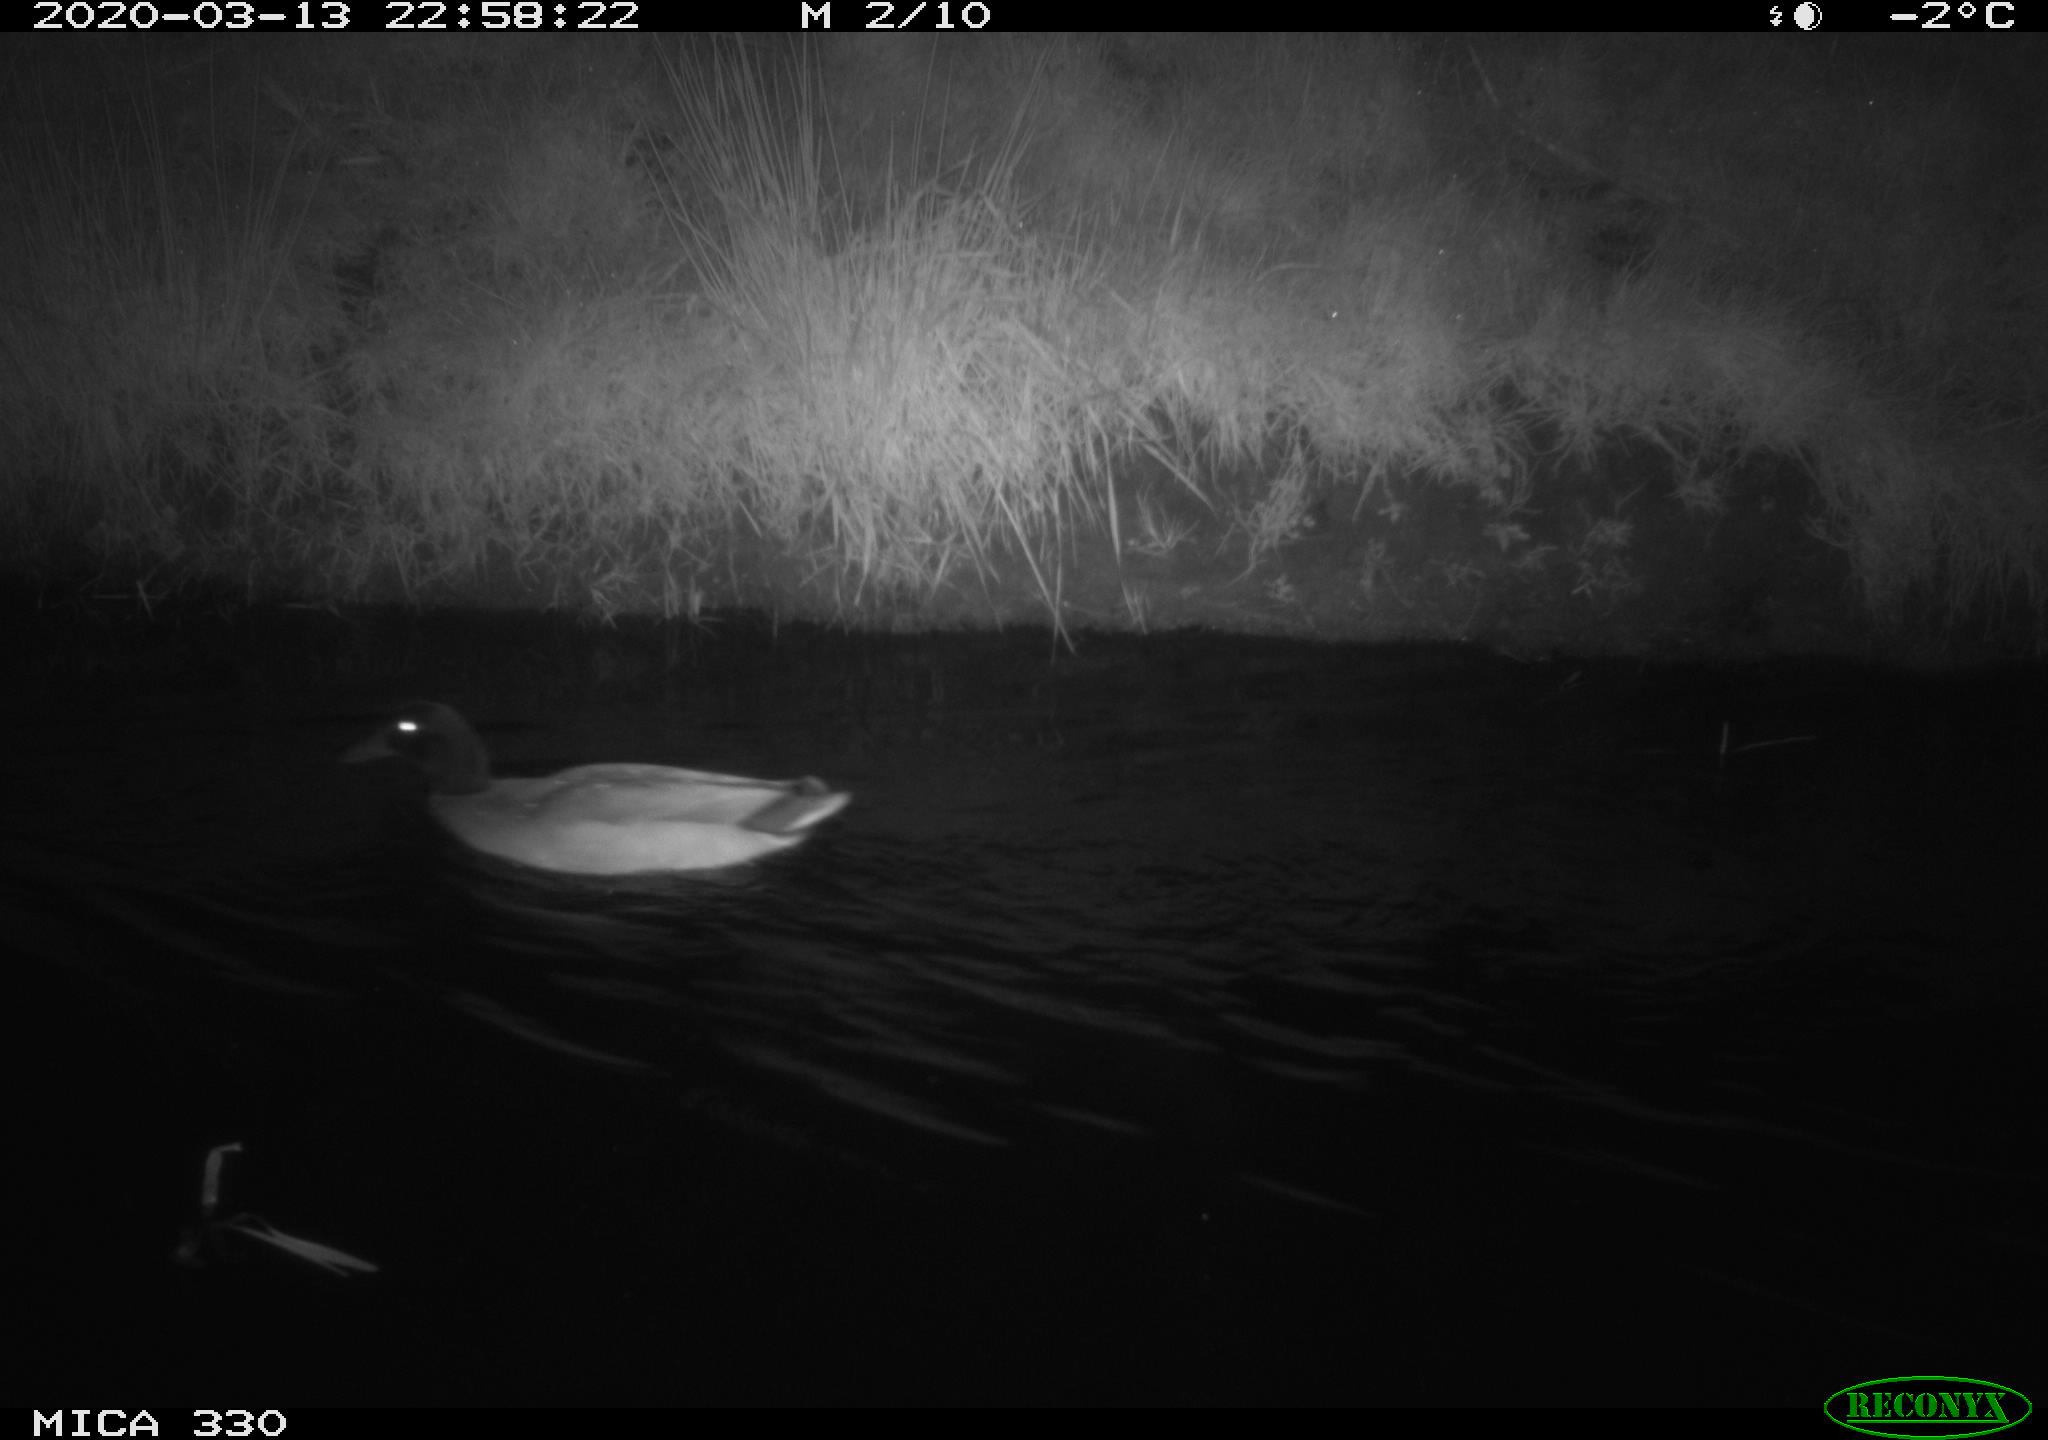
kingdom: Animalia
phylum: Chordata
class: Aves
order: Anseriformes
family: Anatidae
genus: Anas
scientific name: Anas platyrhynchos
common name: Mallard
